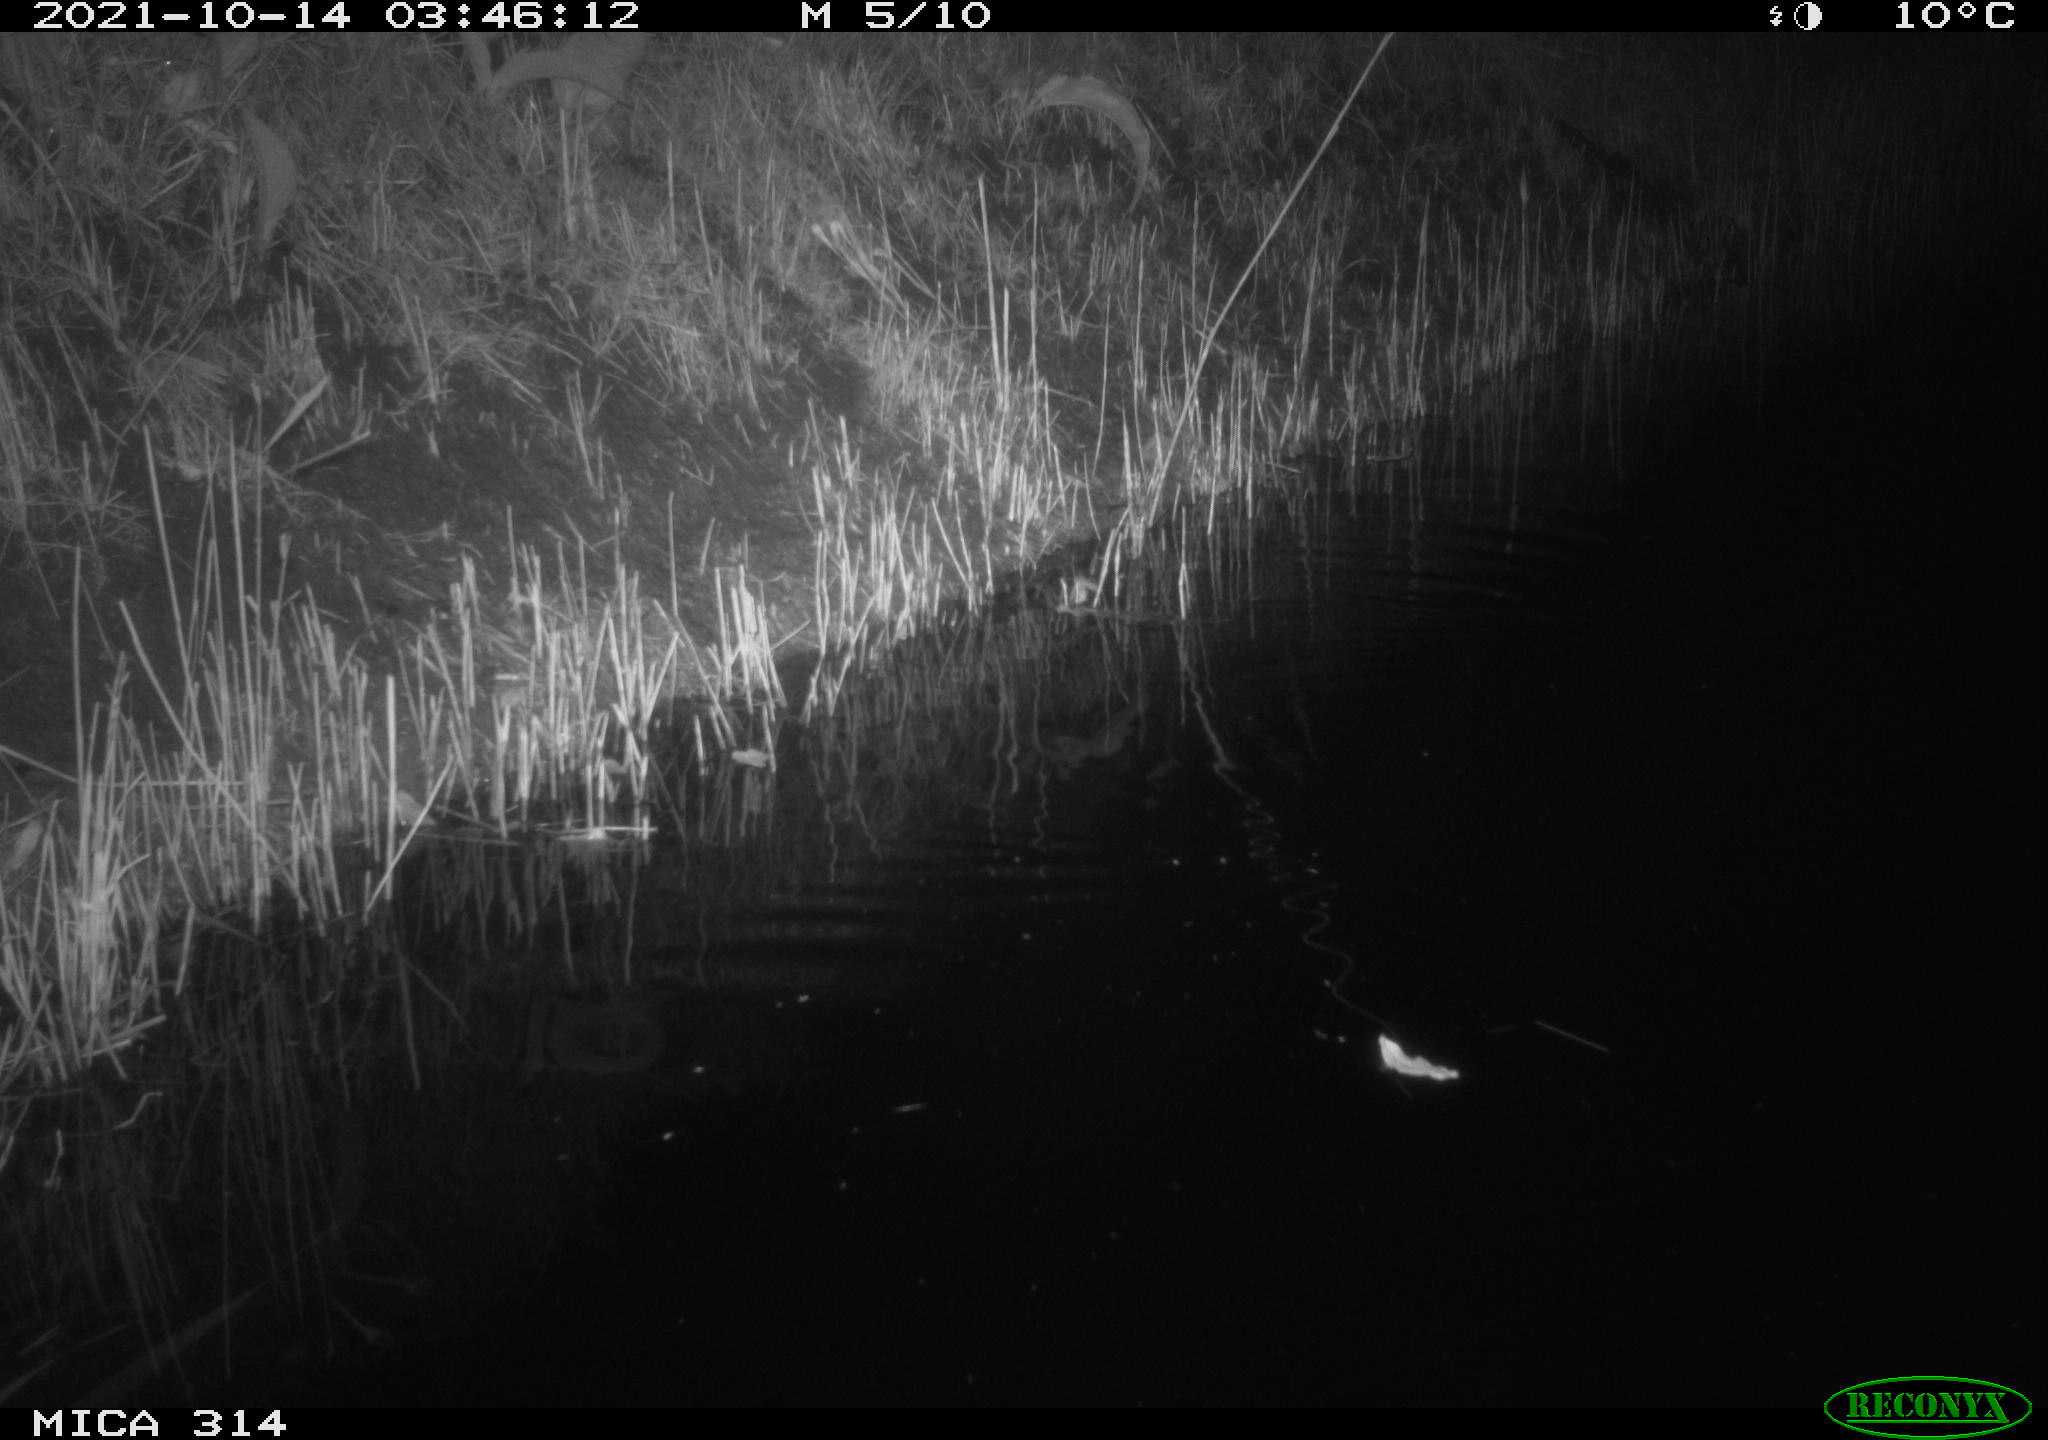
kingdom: Animalia
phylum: Chordata
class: Mammalia
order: Rodentia
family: Muridae
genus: Rattus
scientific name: Rattus norvegicus
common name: Brown rat
